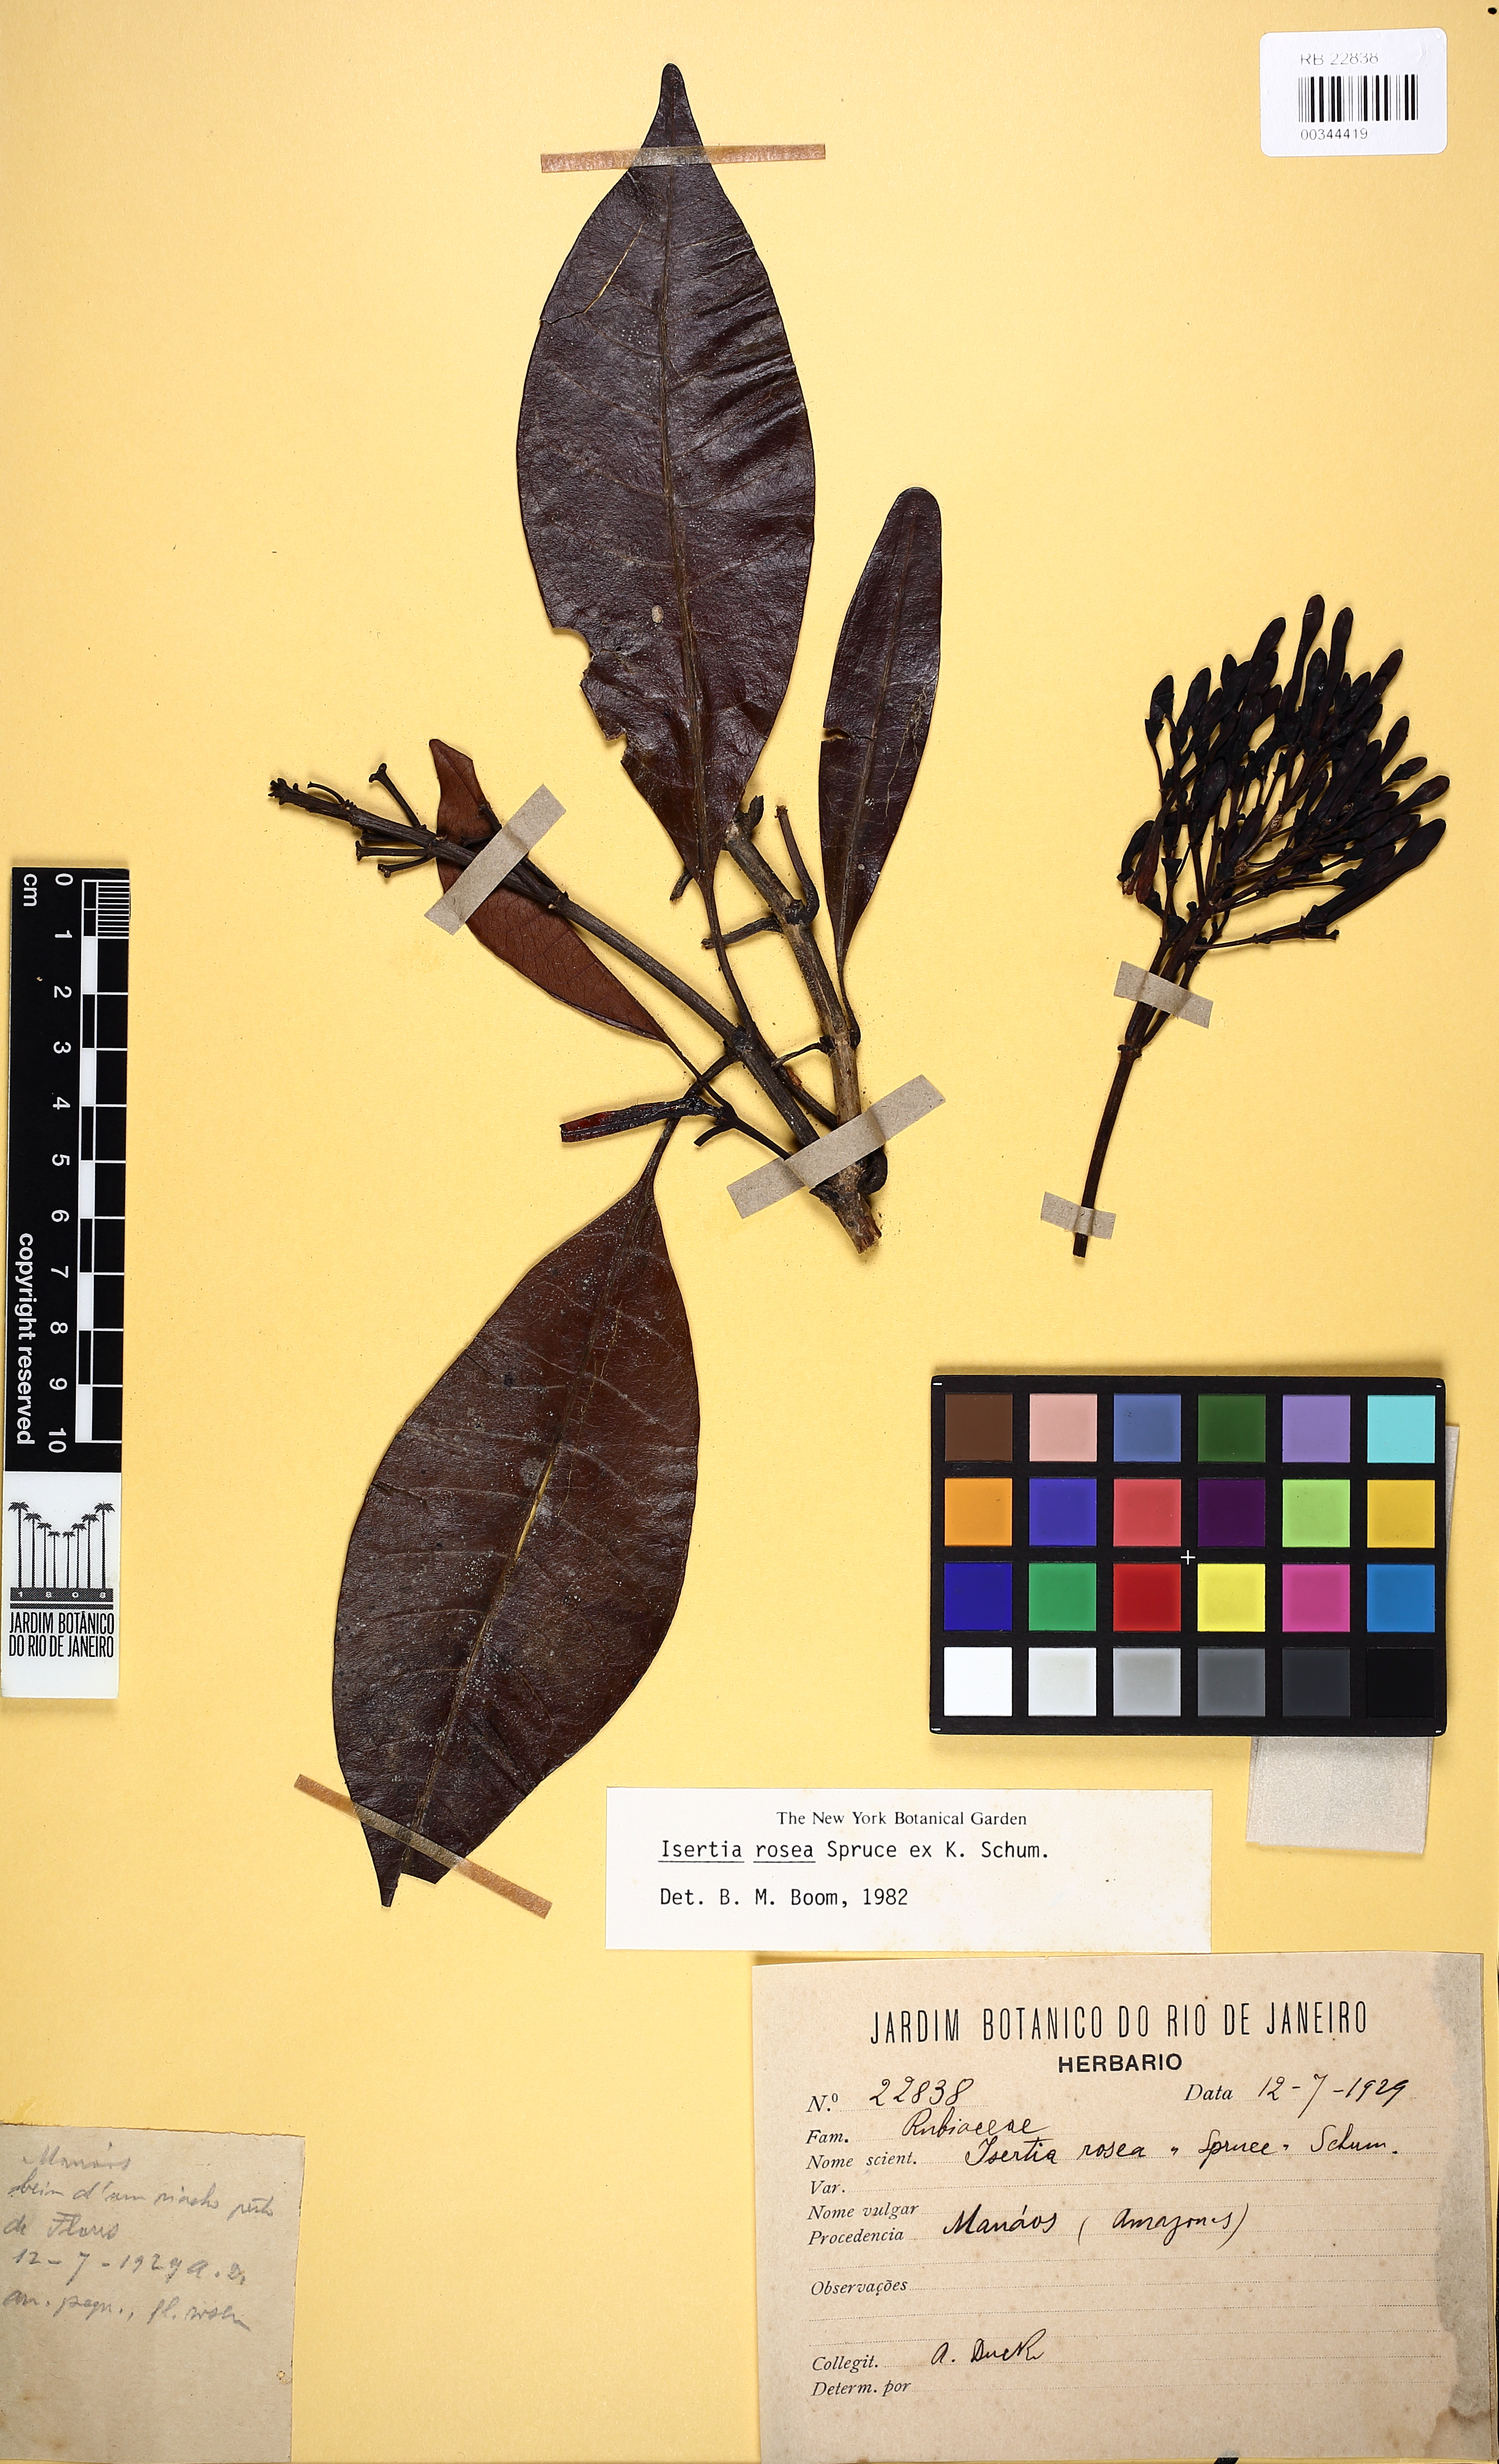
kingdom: Plantae
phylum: Tracheophyta
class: Magnoliopsida
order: Gentianales
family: Rubiaceae
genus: Isertia
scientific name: Isertia rosea
